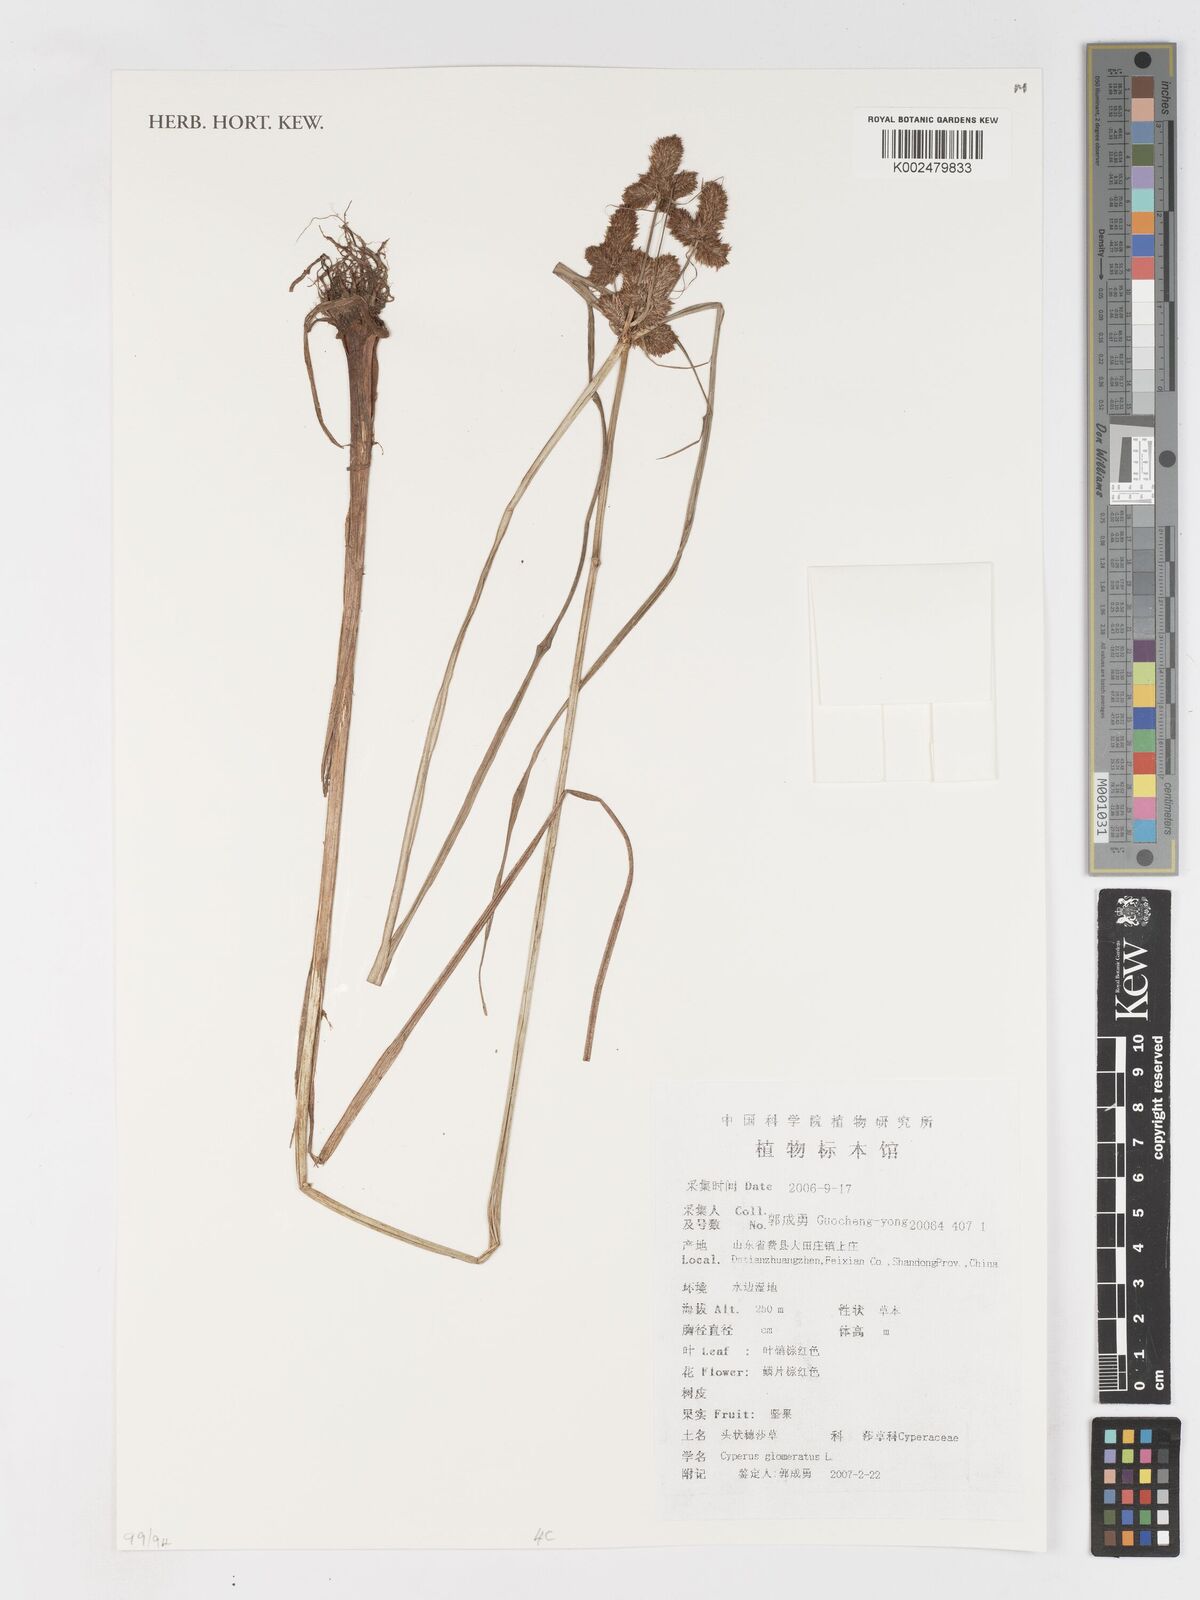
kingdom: Plantae
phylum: Tracheophyta
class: Liliopsida
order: Poales
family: Cyperaceae
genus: Cyperus
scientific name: Cyperus glomeratus
